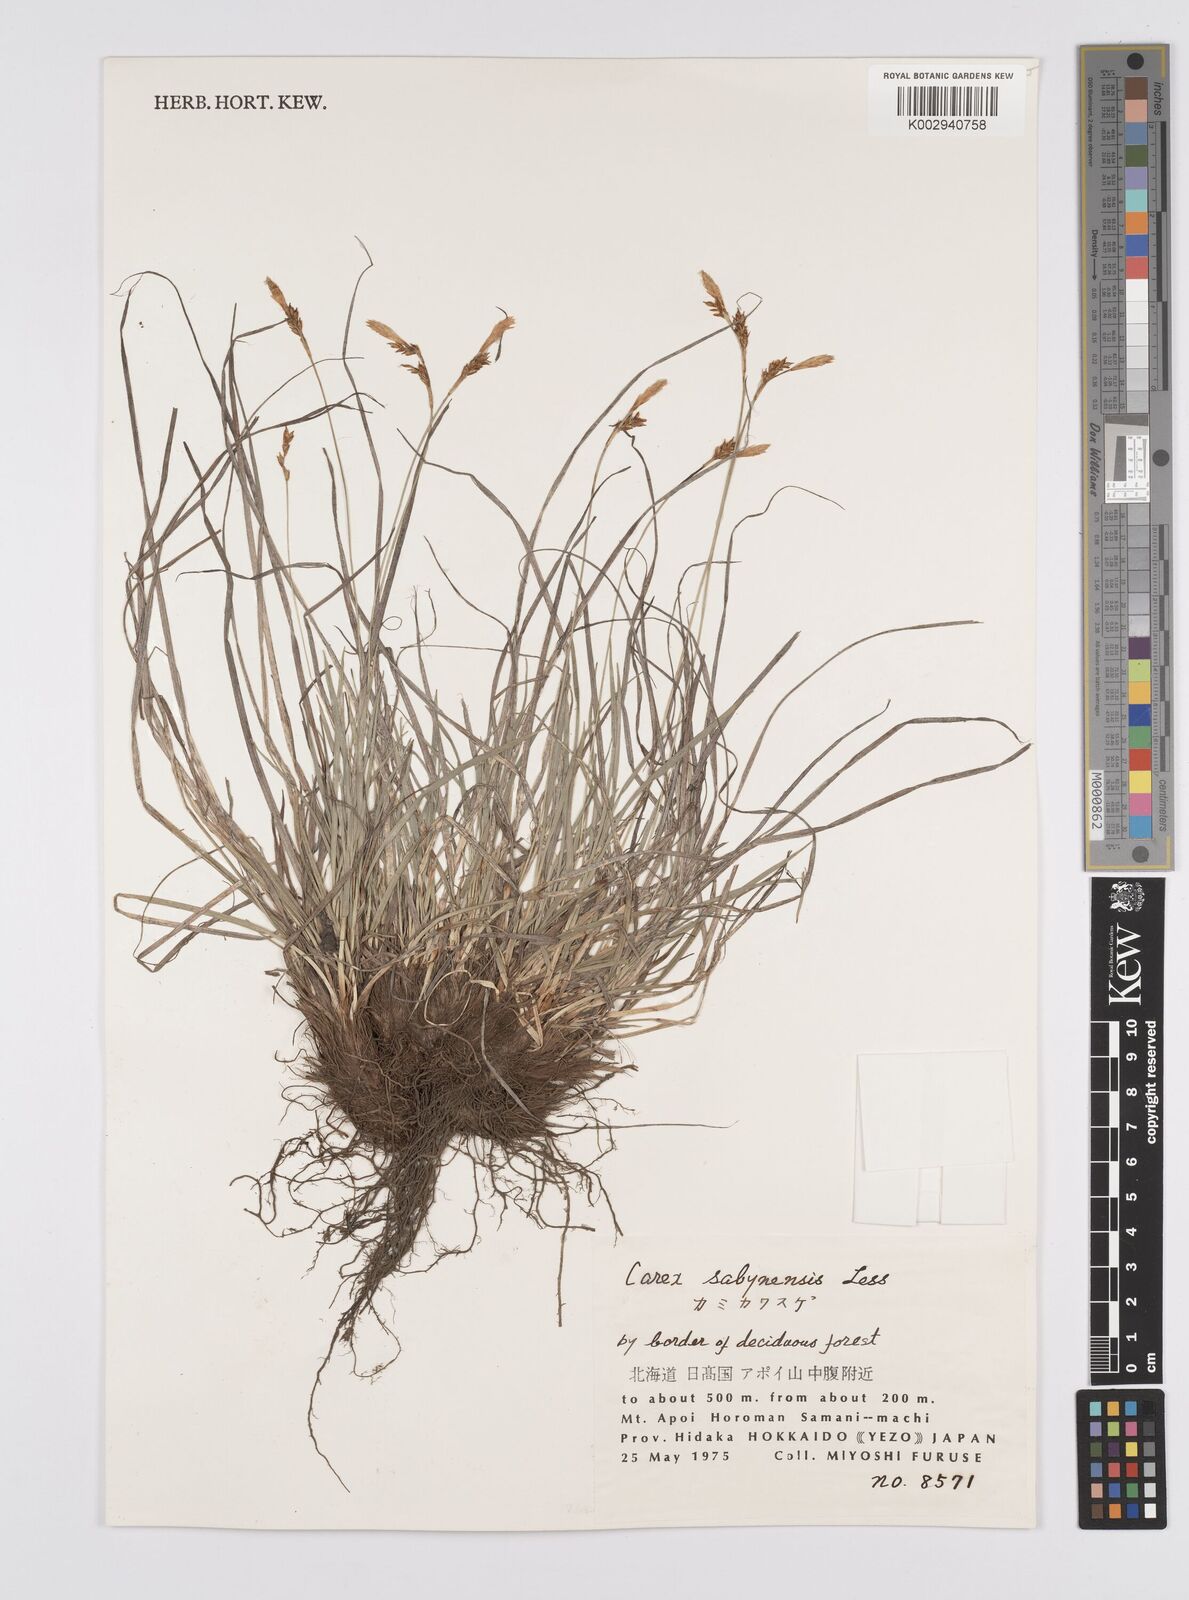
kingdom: Plantae
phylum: Tracheophyta
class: Liliopsida
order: Poales
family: Cyperaceae
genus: Carex
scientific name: Carex umbrosa
